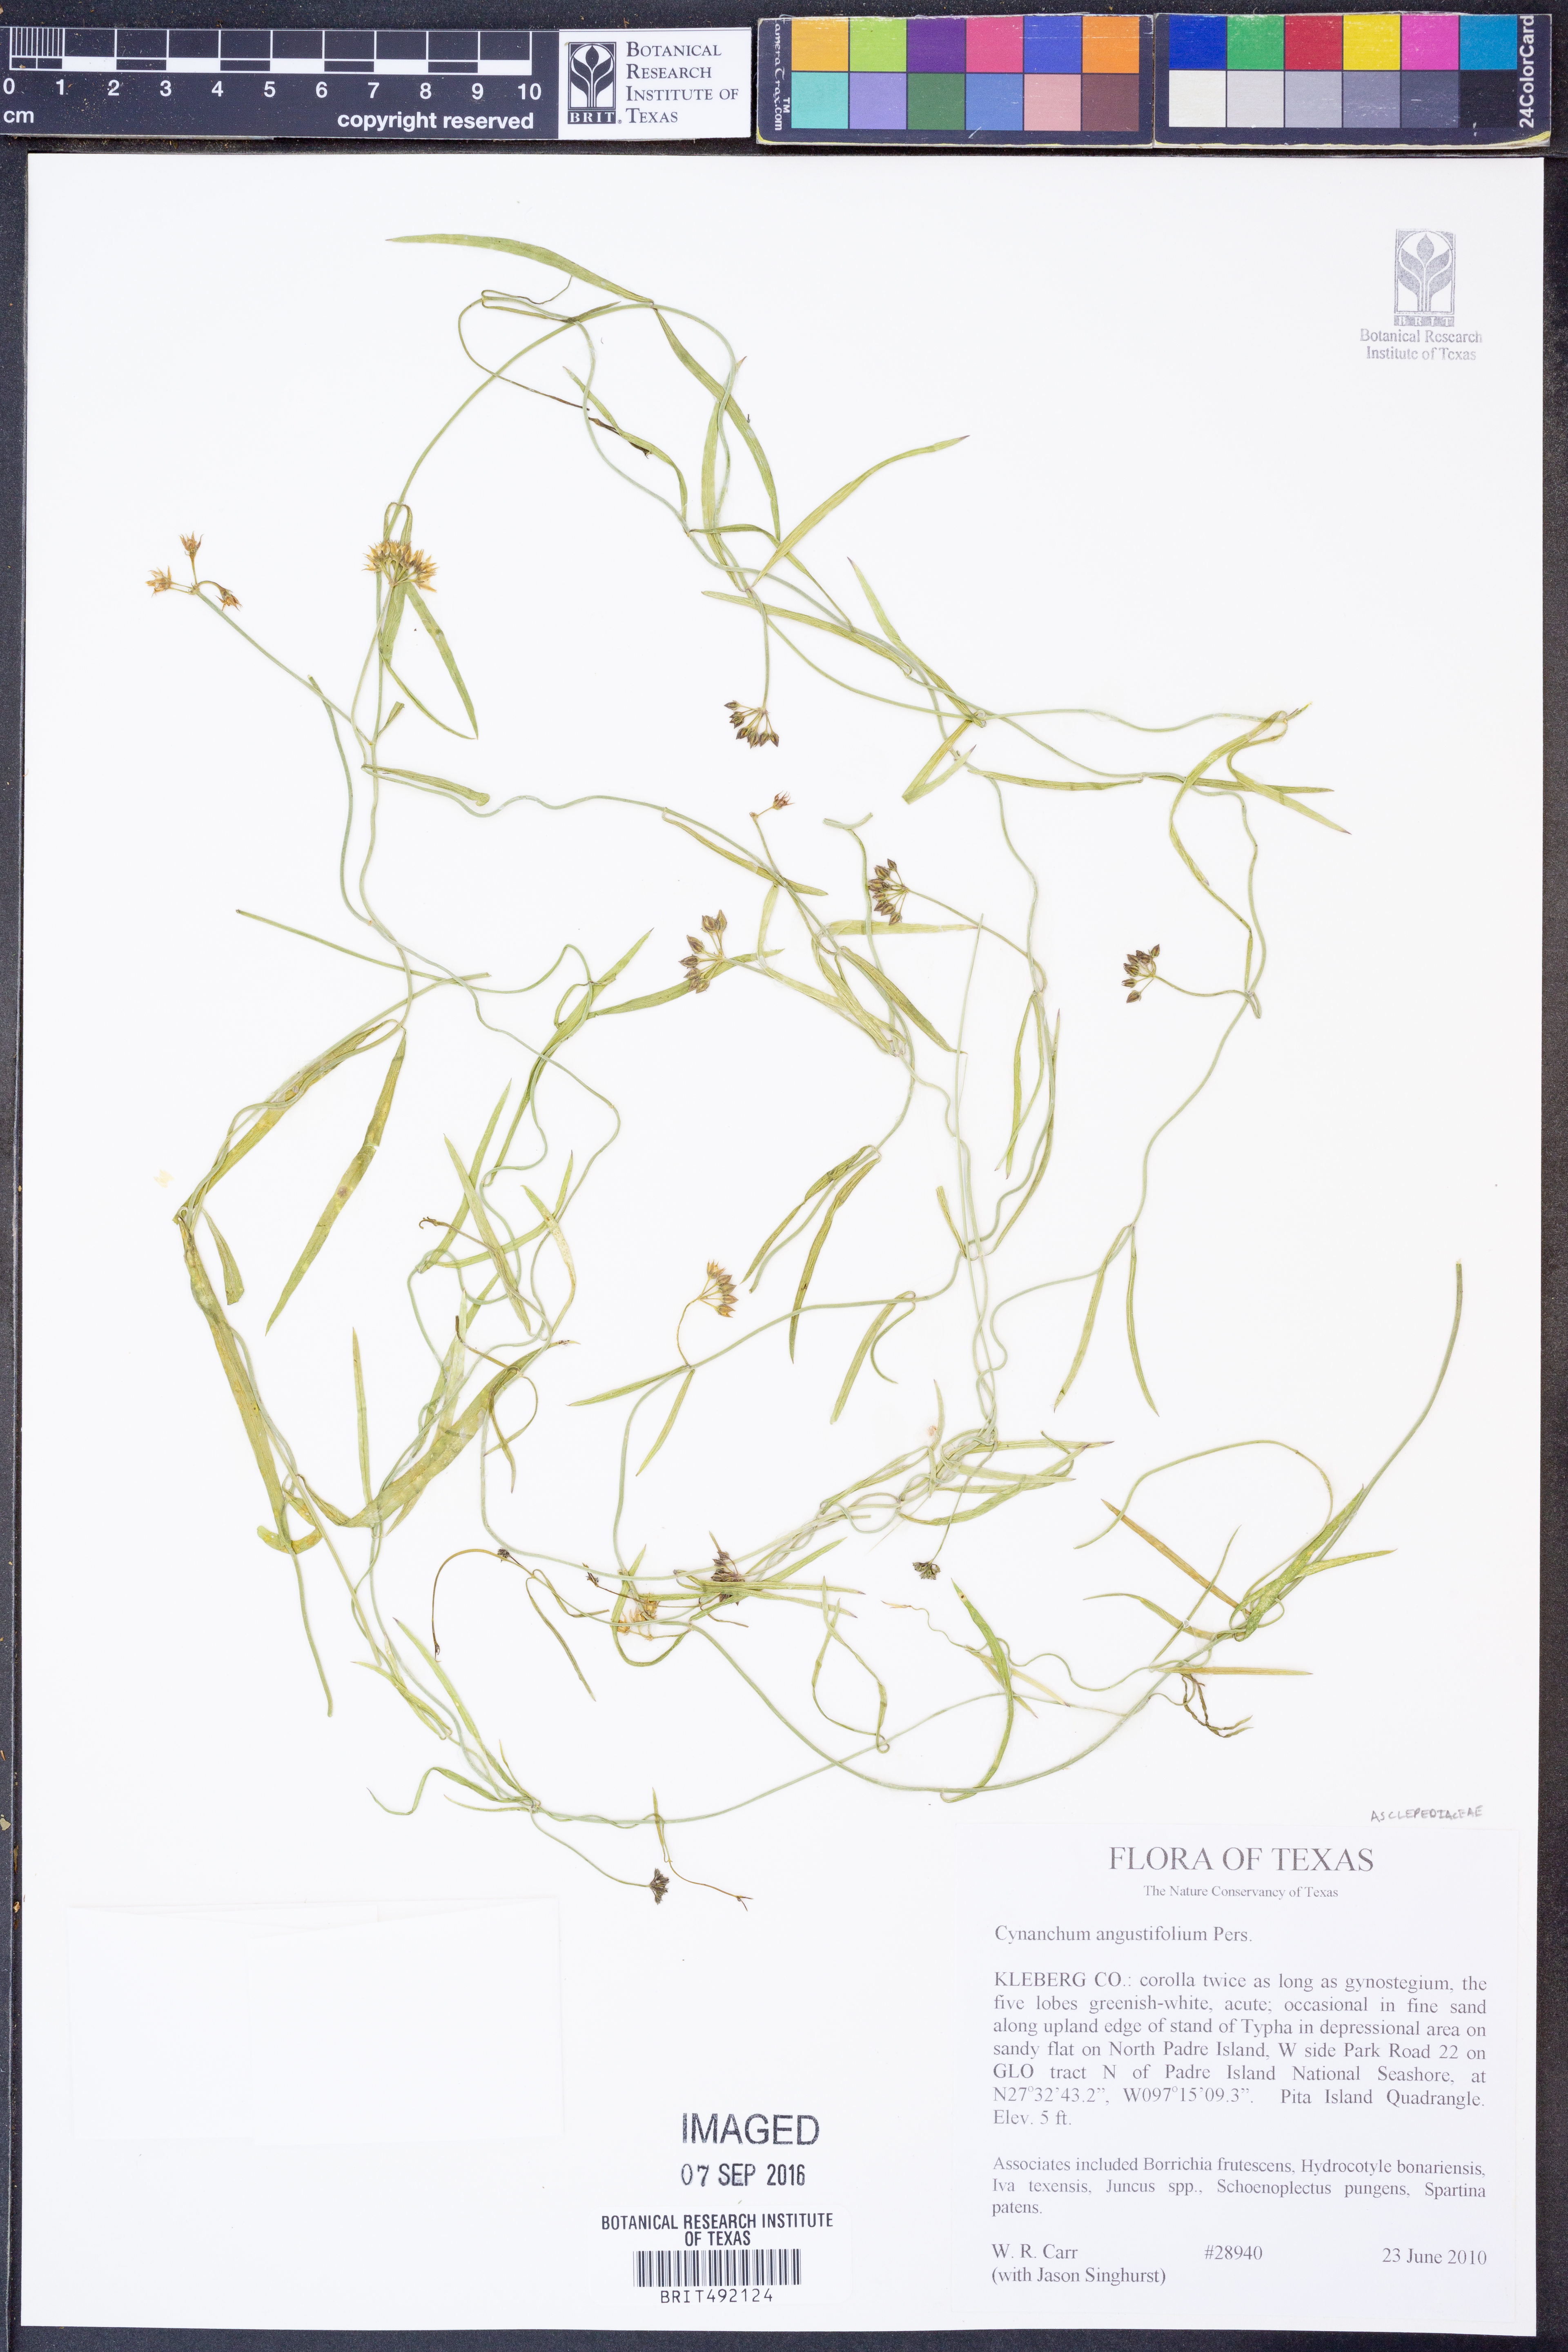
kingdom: Plantae
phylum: Tracheophyta
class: Magnoliopsida
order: Gentianales
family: Apocynaceae
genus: Pattalias
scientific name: Pattalias palustris
